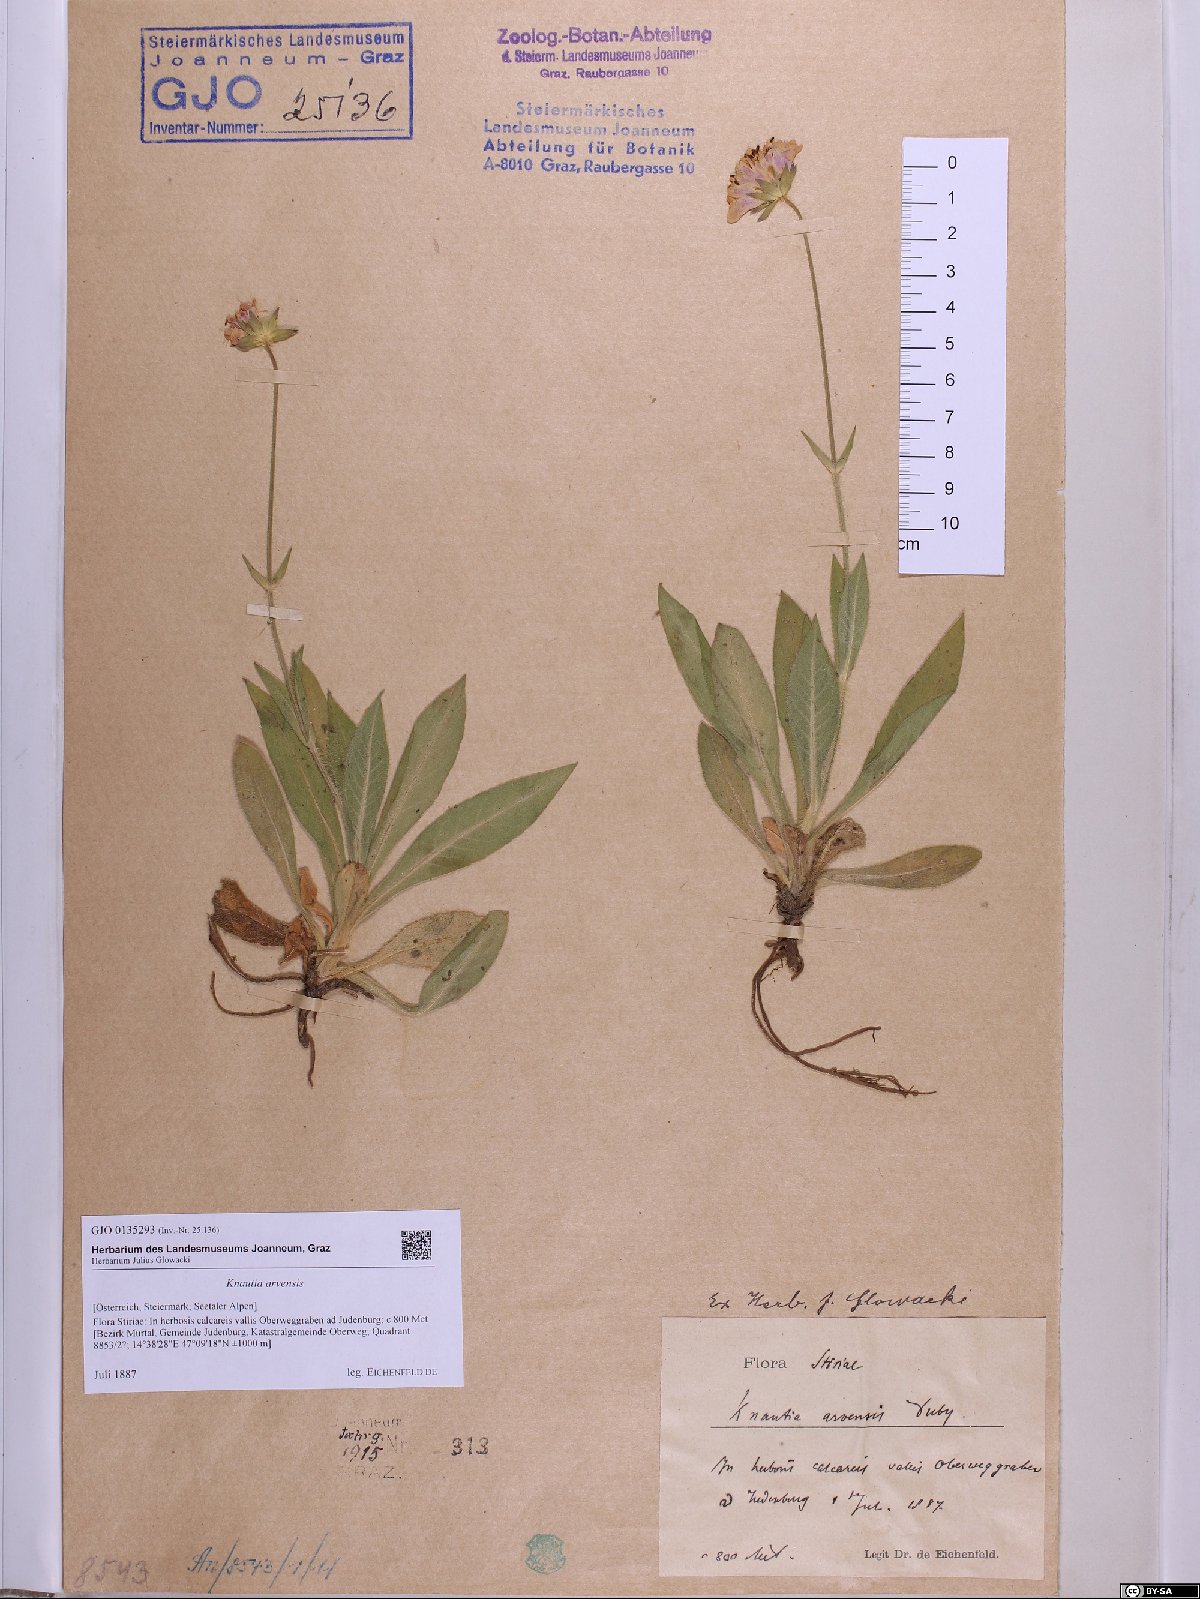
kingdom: Plantae
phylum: Tracheophyta
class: Magnoliopsida
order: Dipsacales
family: Caprifoliaceae
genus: Knautia
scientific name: Knautia arvensis
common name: Field scabiosa
